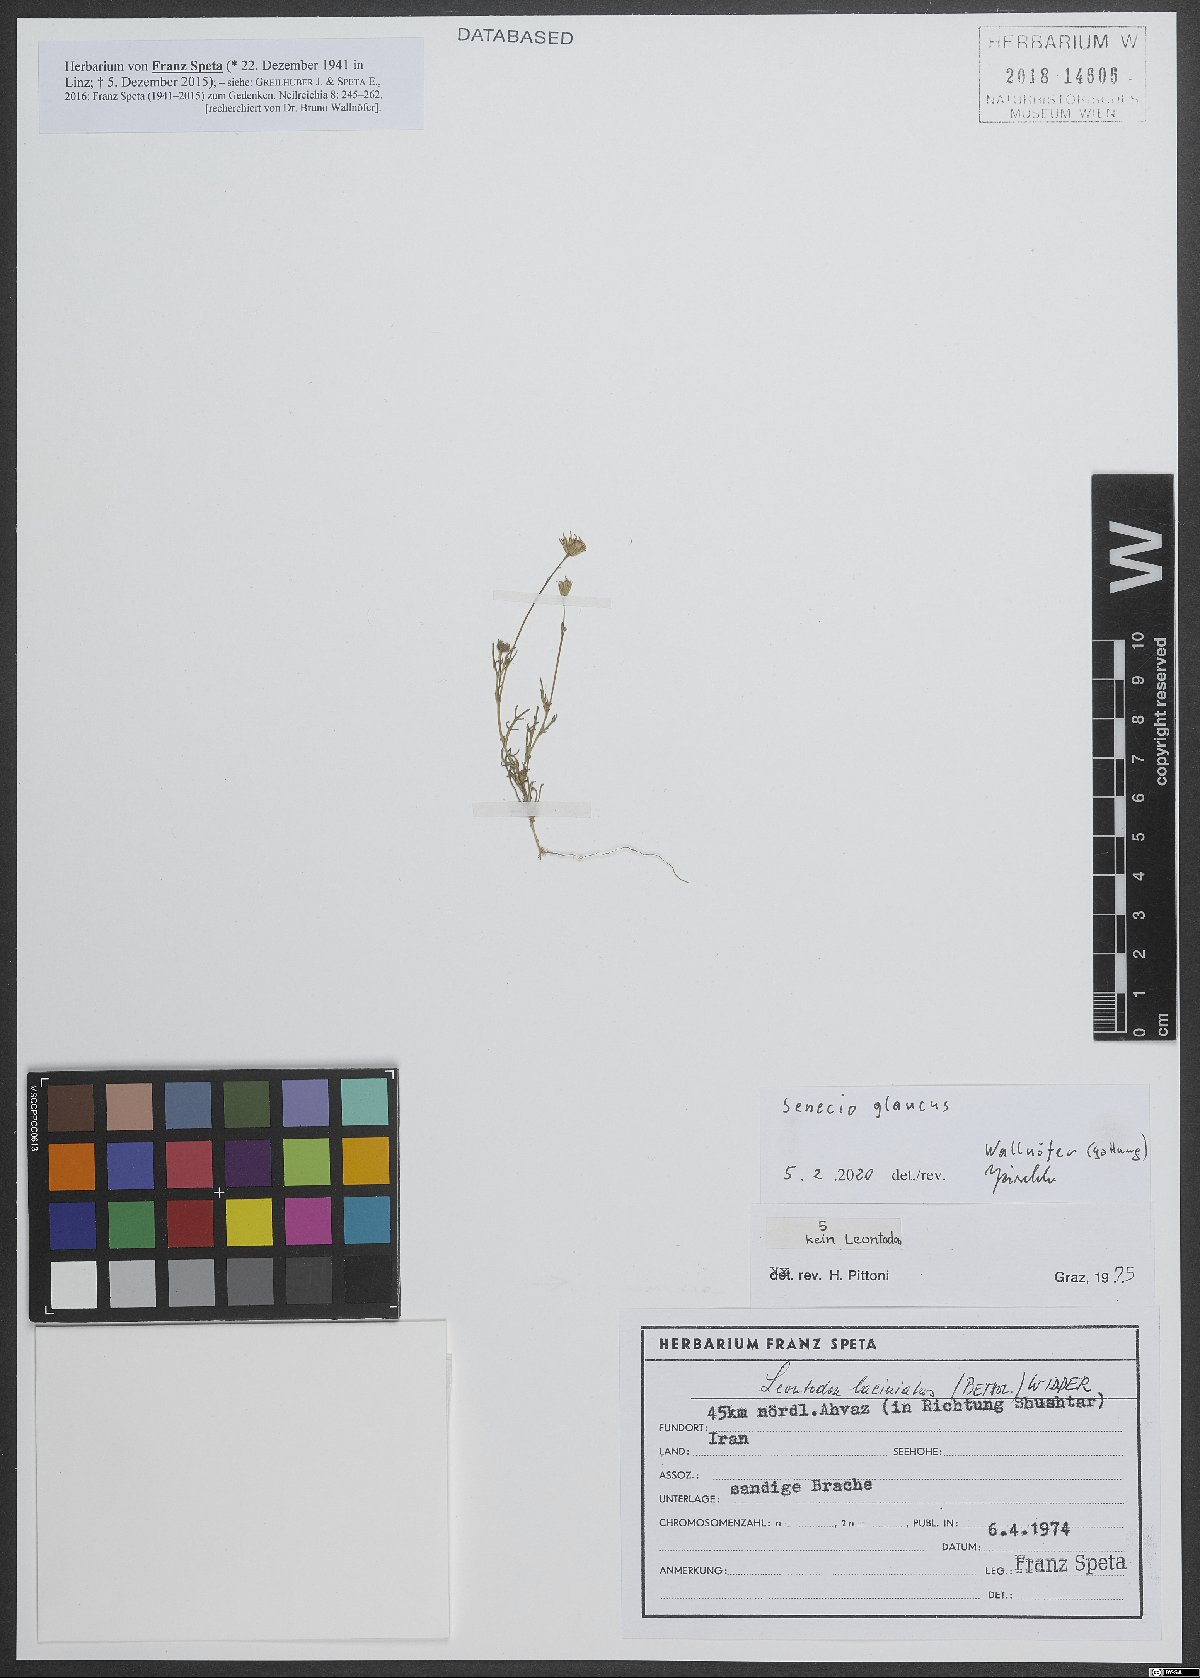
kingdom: Plantae
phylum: Tracheophyta
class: Magnoliopsida
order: Asterales
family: Asteraceae
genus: Senecio
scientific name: Senecio glaucus
